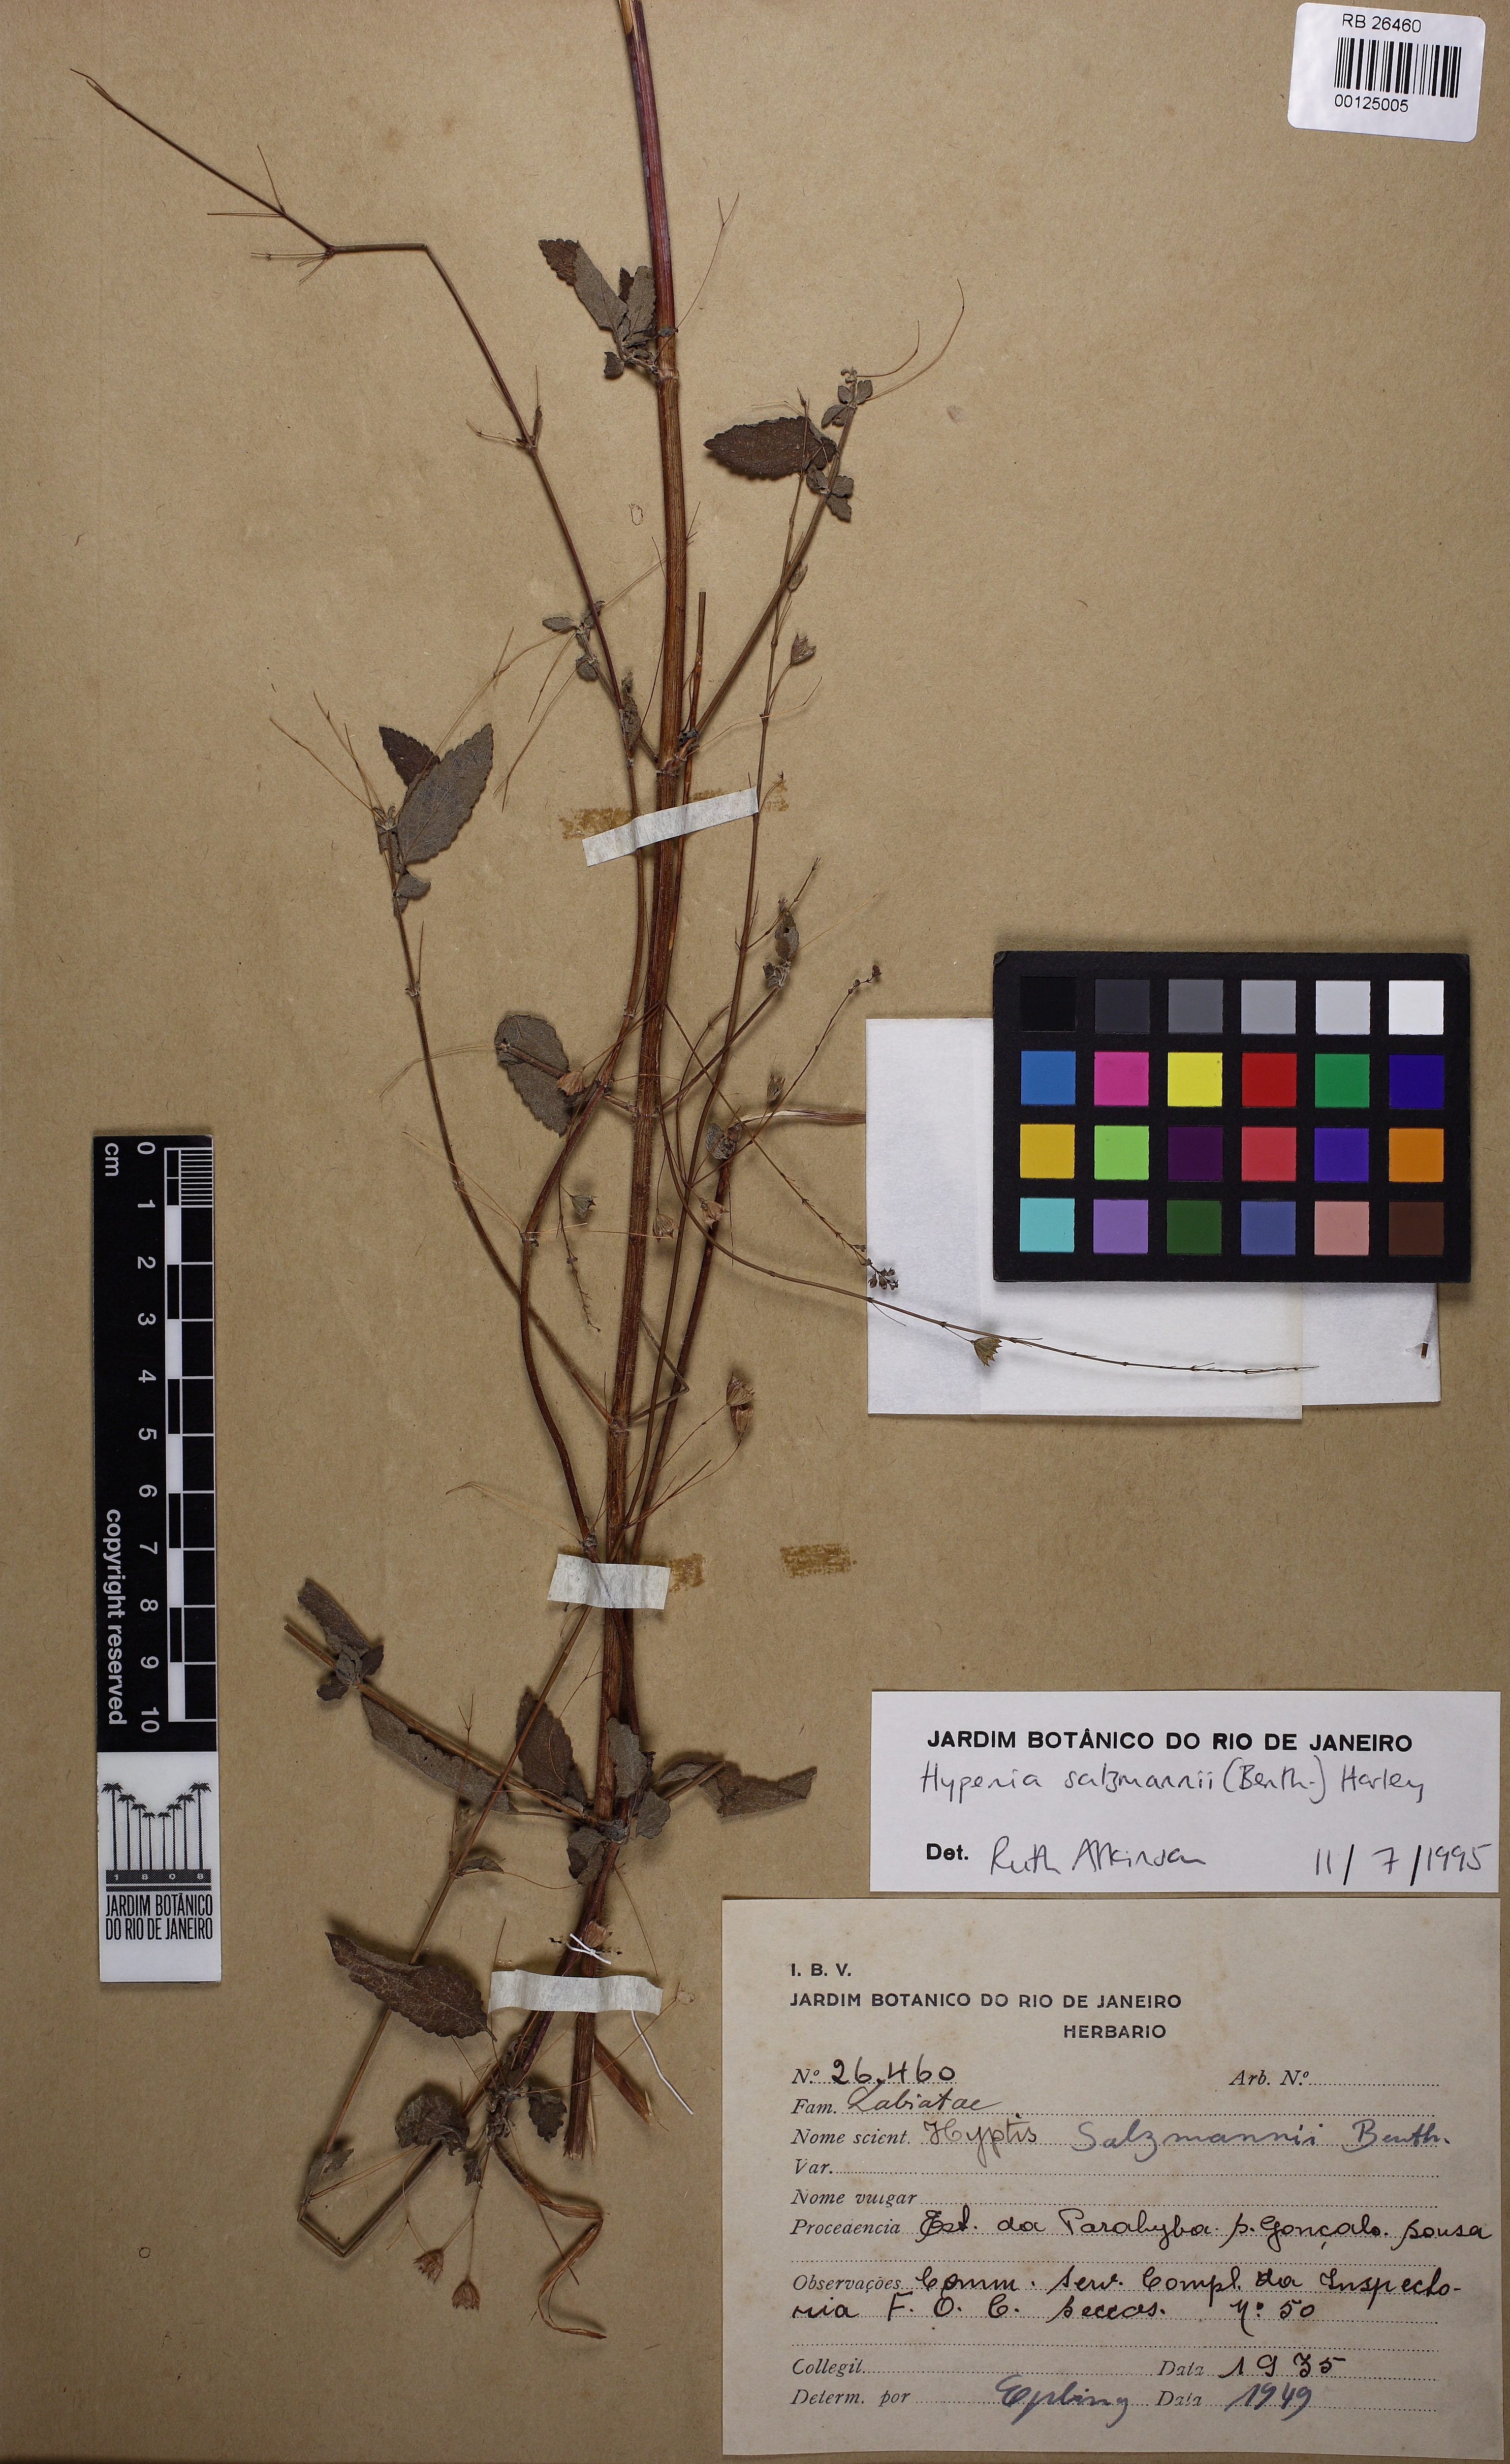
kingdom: Plantae
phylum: Tracheophyta
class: Magnoliopsida
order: Lamiales
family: Lamiaceae
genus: Hypenia
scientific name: Hypenia salzmannii
